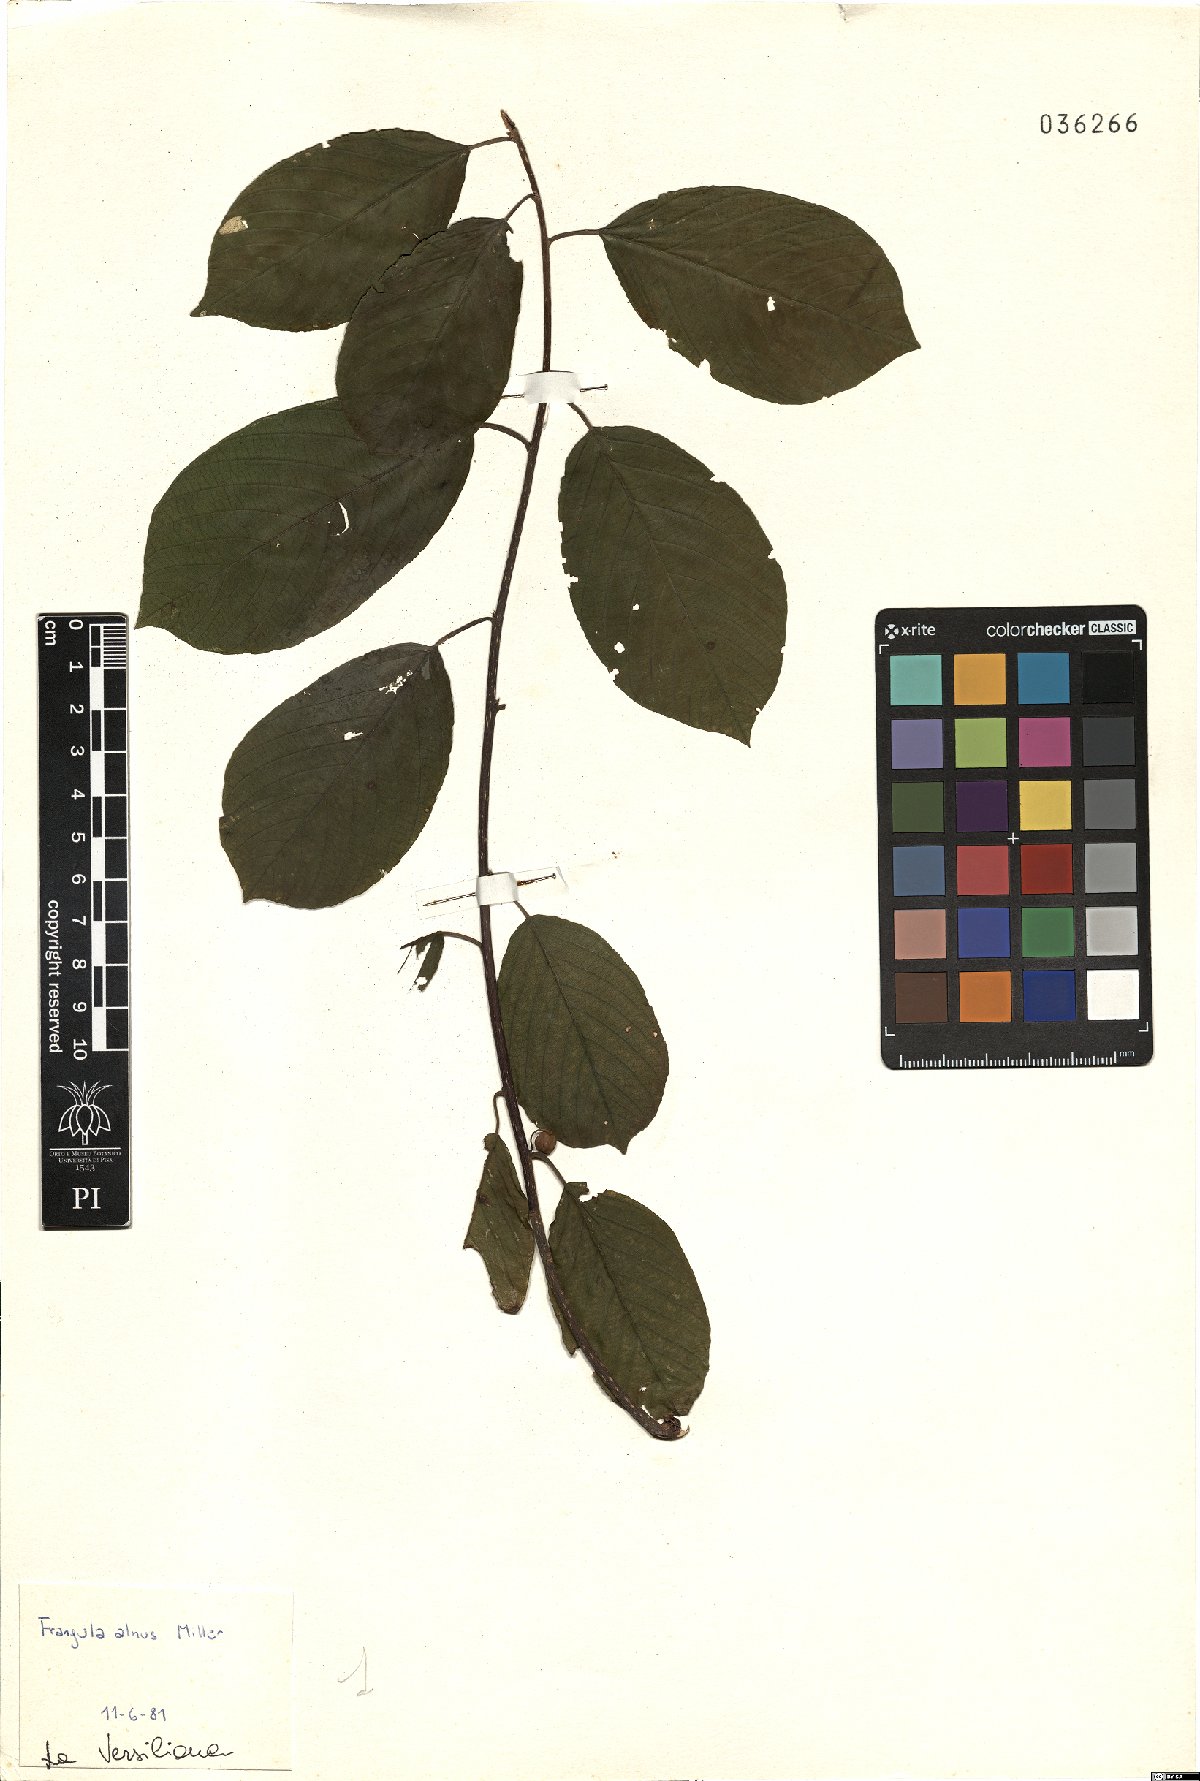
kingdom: Plantae
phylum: Tracheophyta
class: Magnoliopsida
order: Rosales
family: Rhamnaceae
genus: Frangula
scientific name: Frangula alnus
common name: Alder buckthorn
